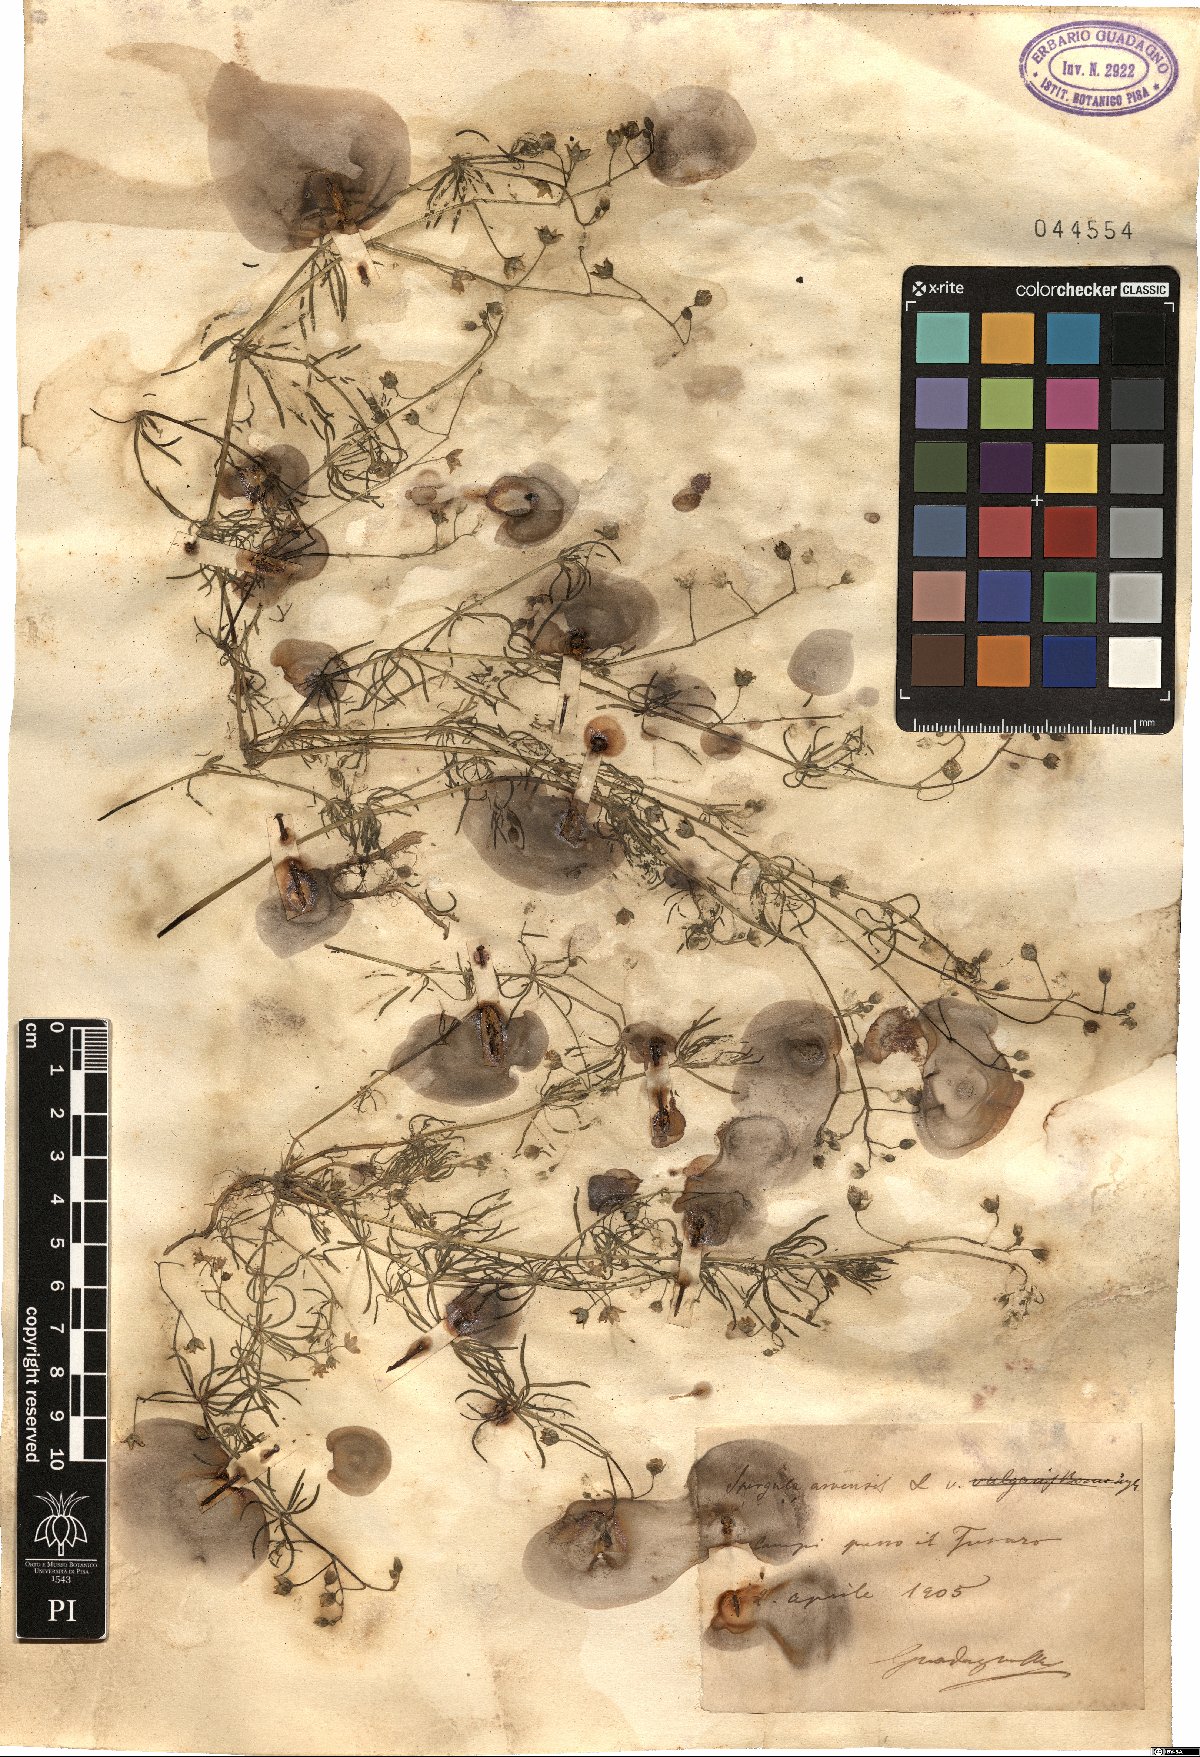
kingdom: Plantae
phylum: Tracheophyta
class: Magnoliopsida
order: Caryophyllales
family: Caryophyllaceae
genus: Spergula
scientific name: Spergula arvensis
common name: Corn spurrey
